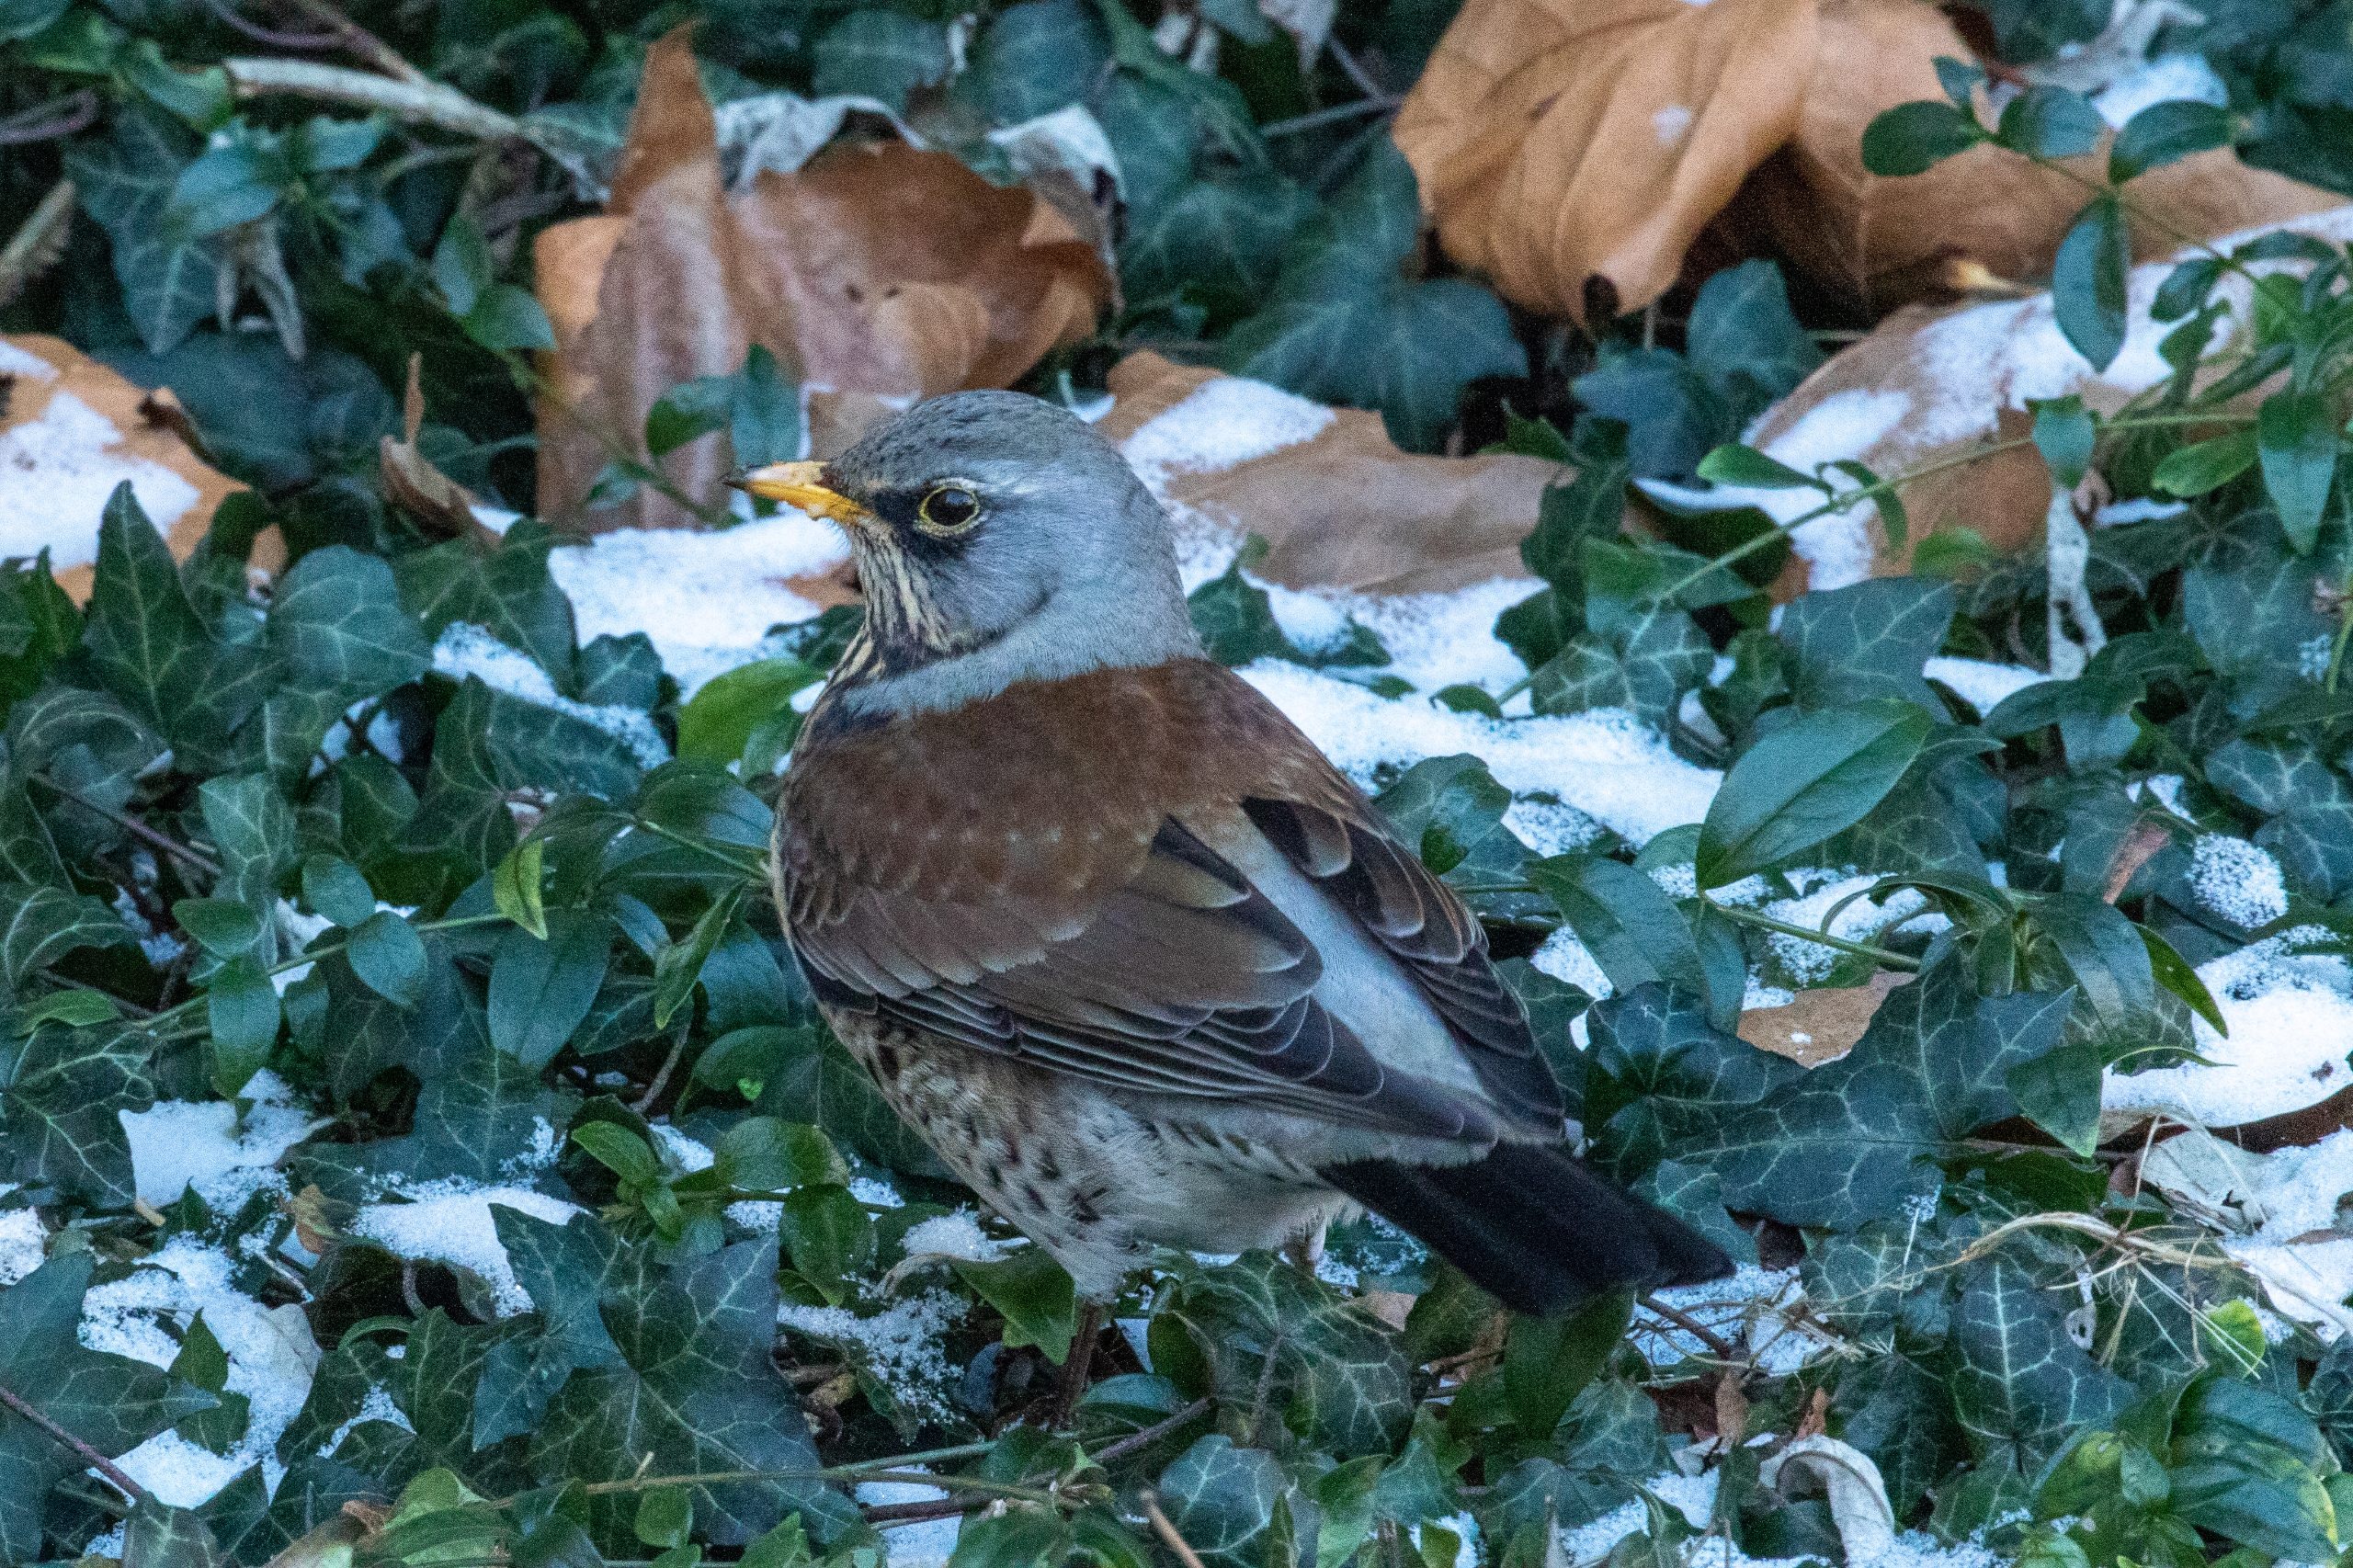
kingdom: Animalia
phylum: Chordata
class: Aves
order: Passeriformes
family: Turdidae
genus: Turdus
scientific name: Turdus pilaris
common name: Sjagger
